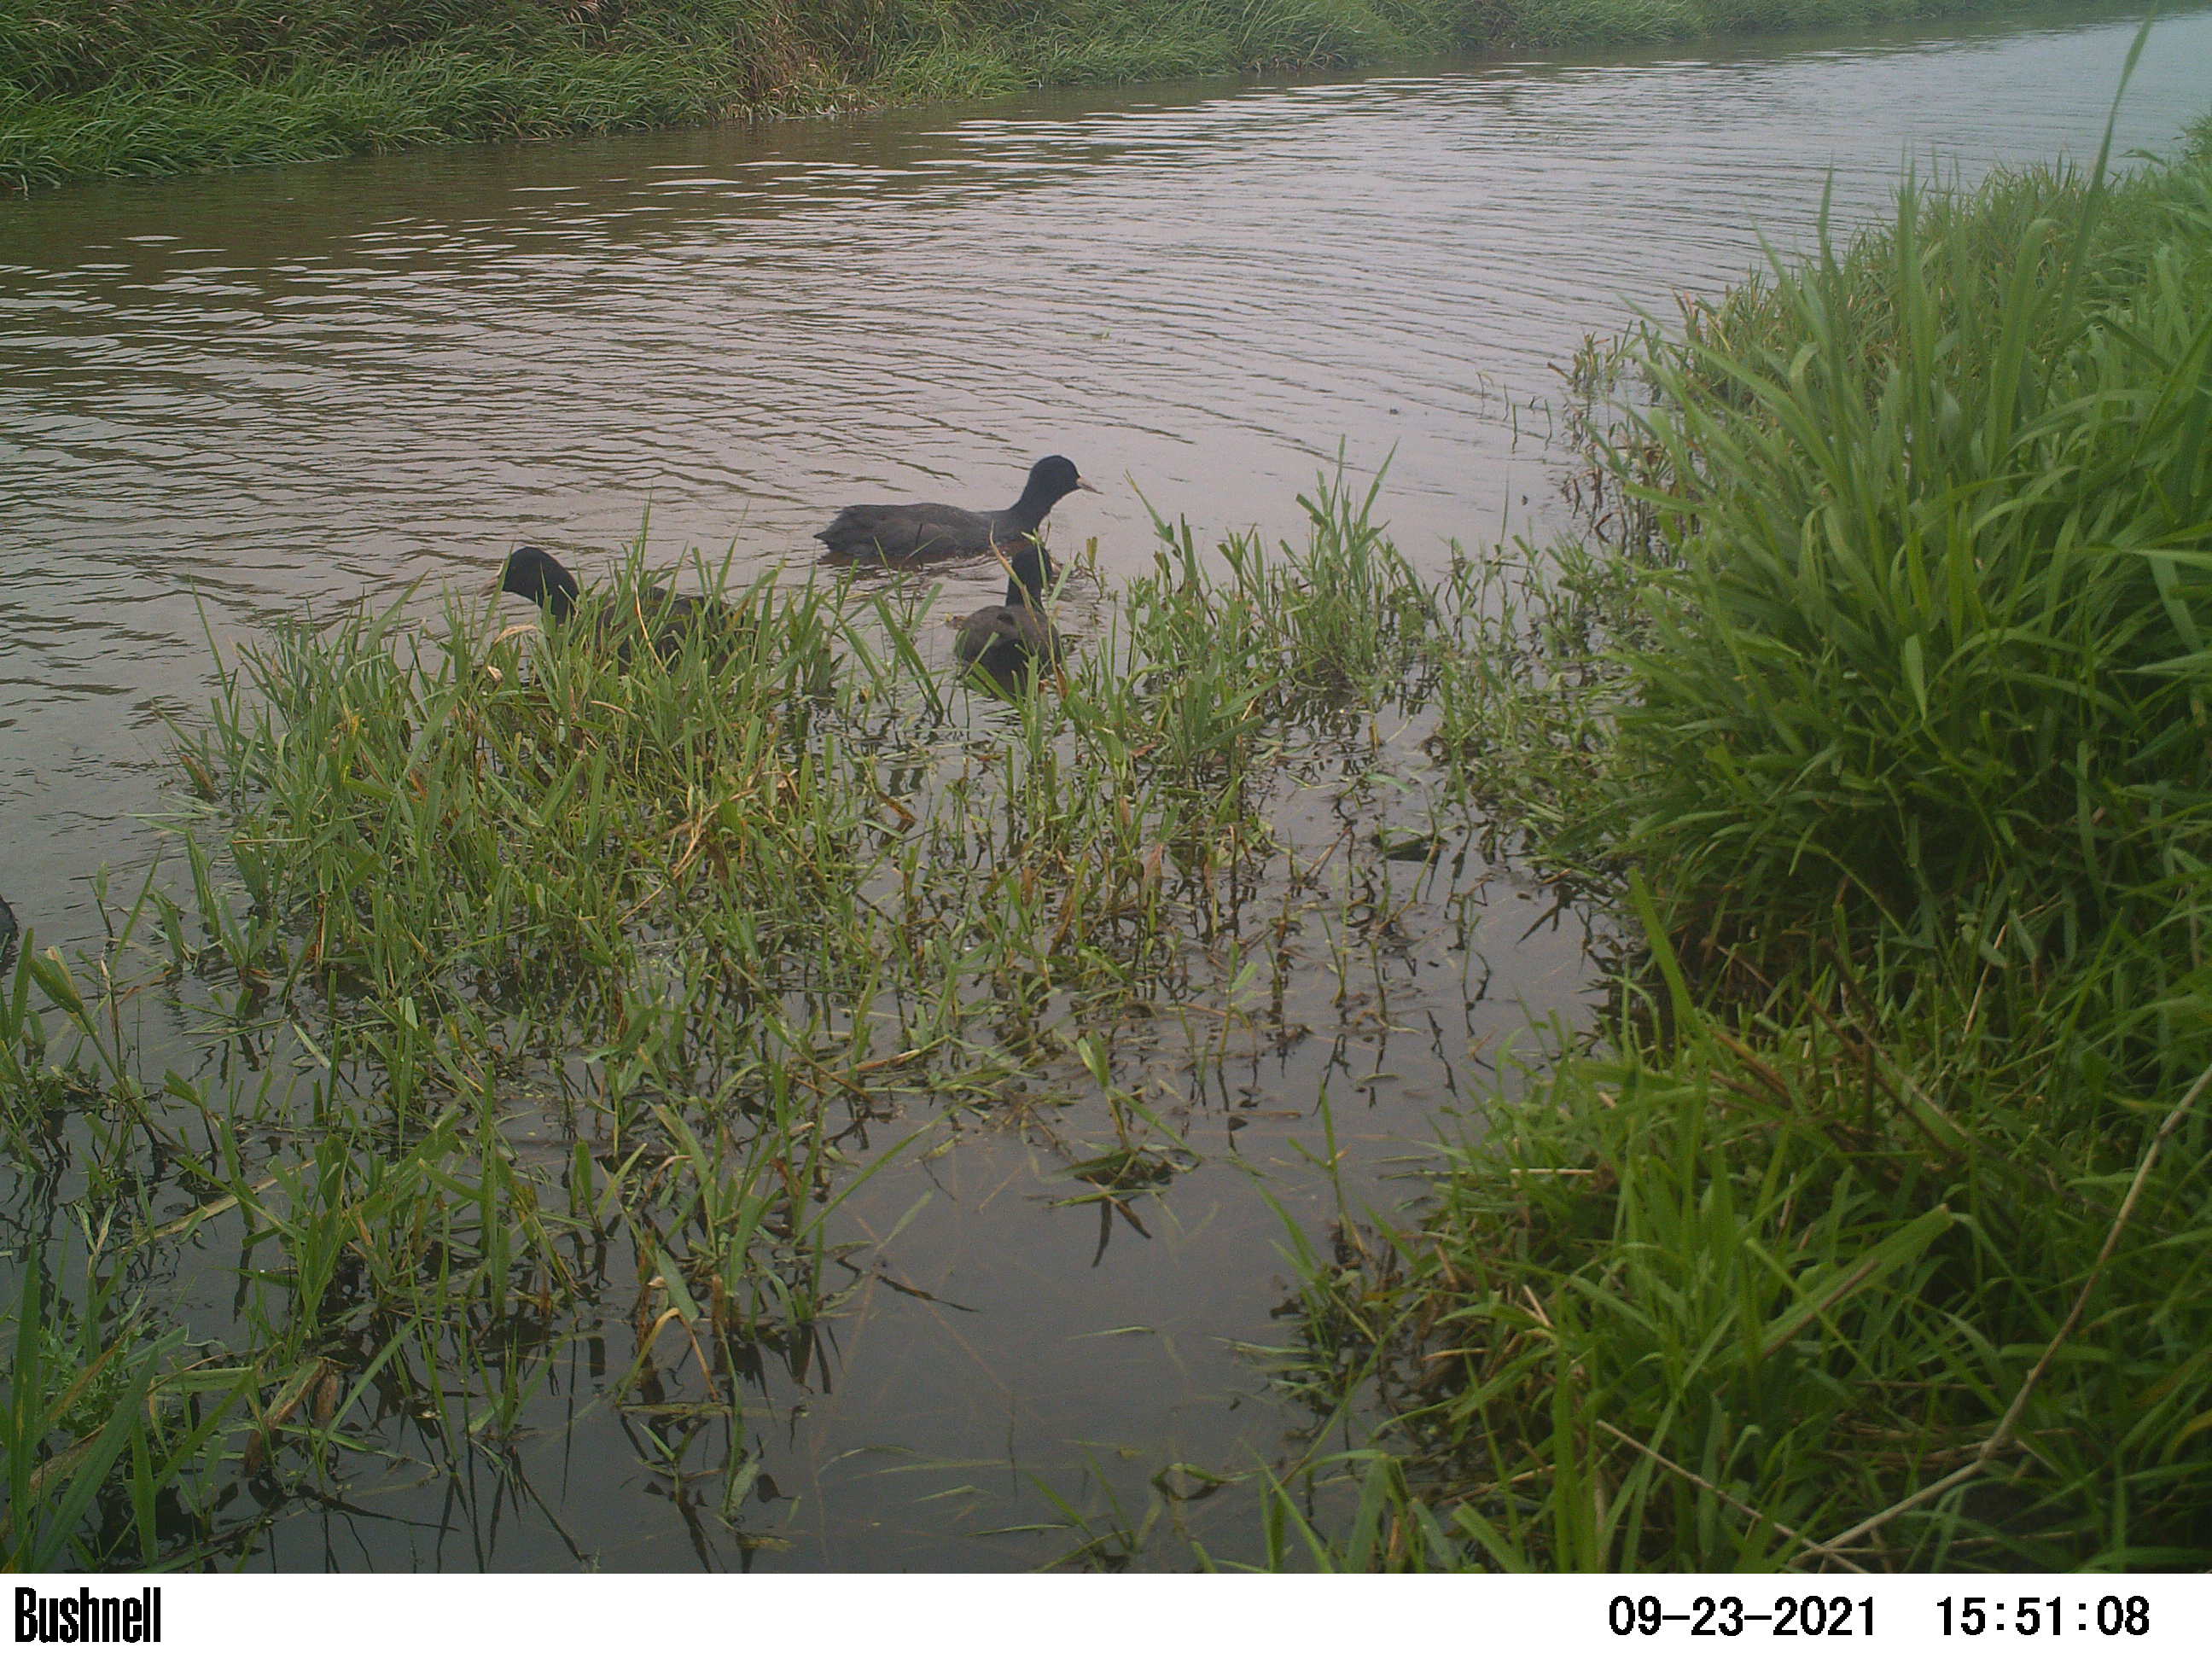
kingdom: Animalia
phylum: Chordata
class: Aves
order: Gruiformes
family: Rallidae
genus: Fulica
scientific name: Fulica atra
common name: Eurasian coot
